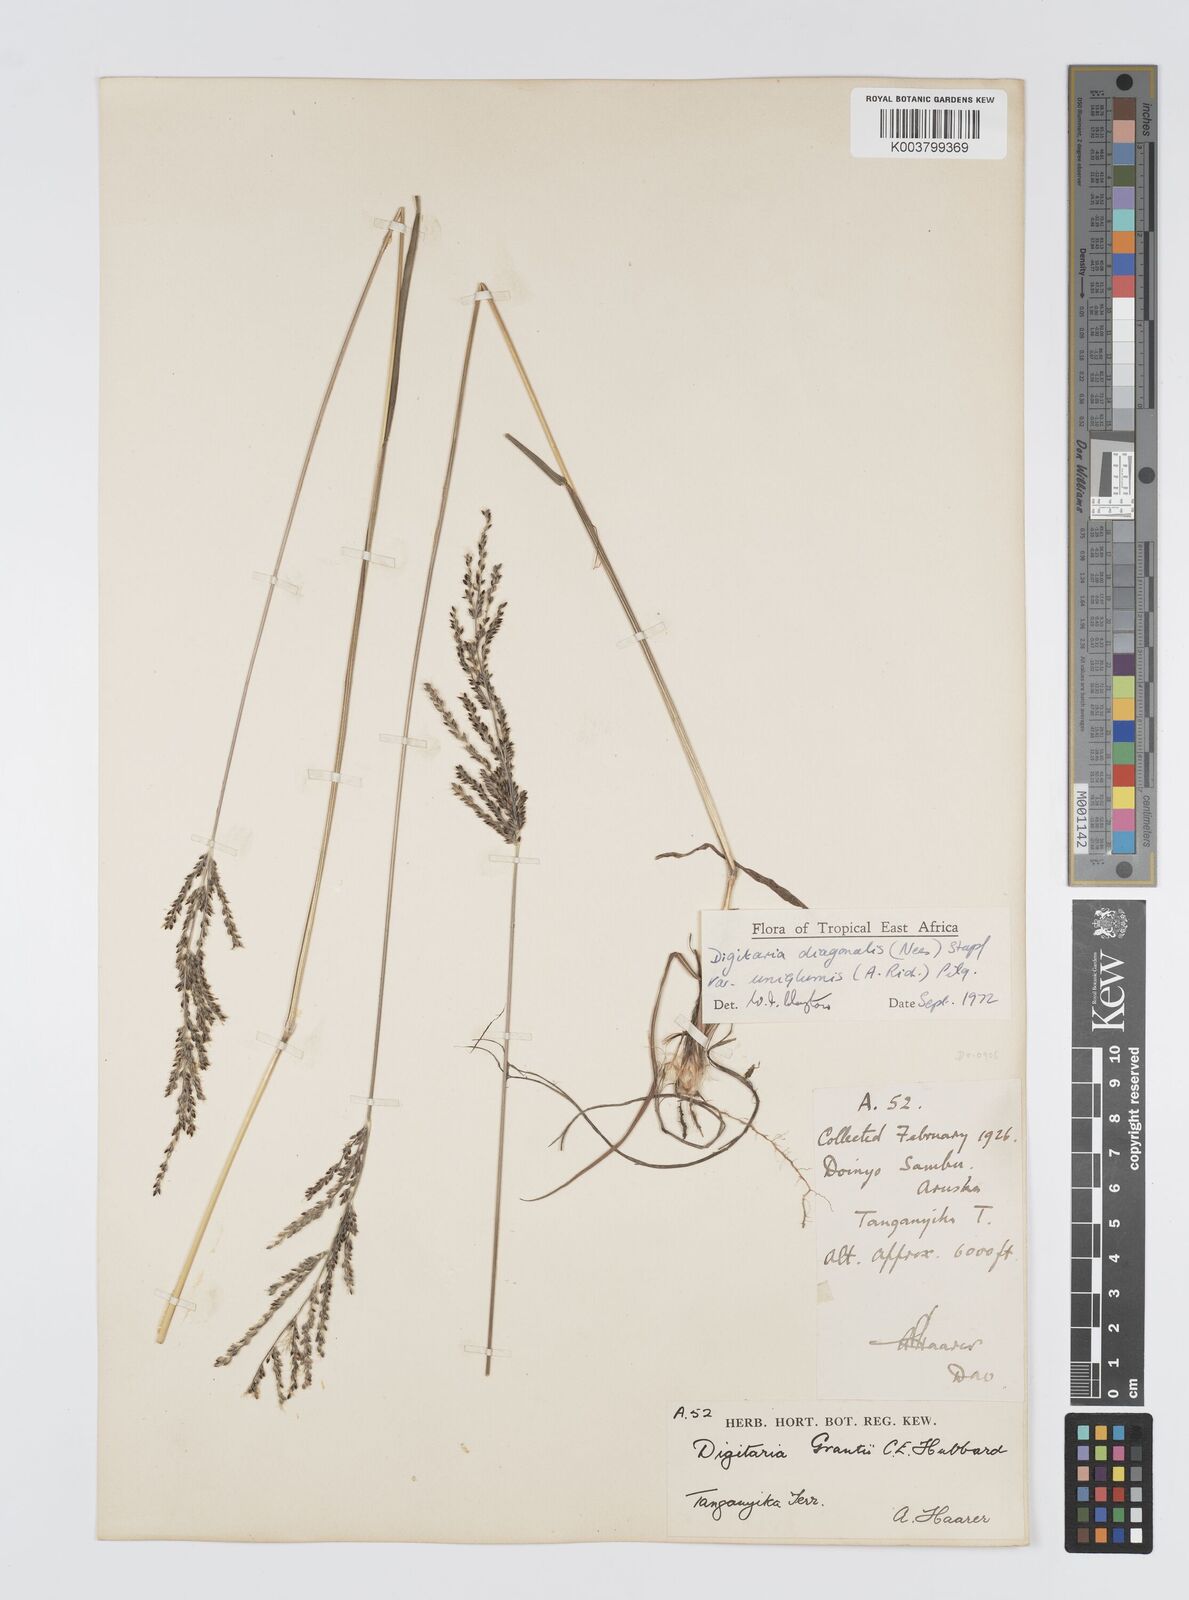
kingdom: Plantae
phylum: Tracheophyta
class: Liliopsida
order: Poales
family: Poaceae
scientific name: Poaceae
